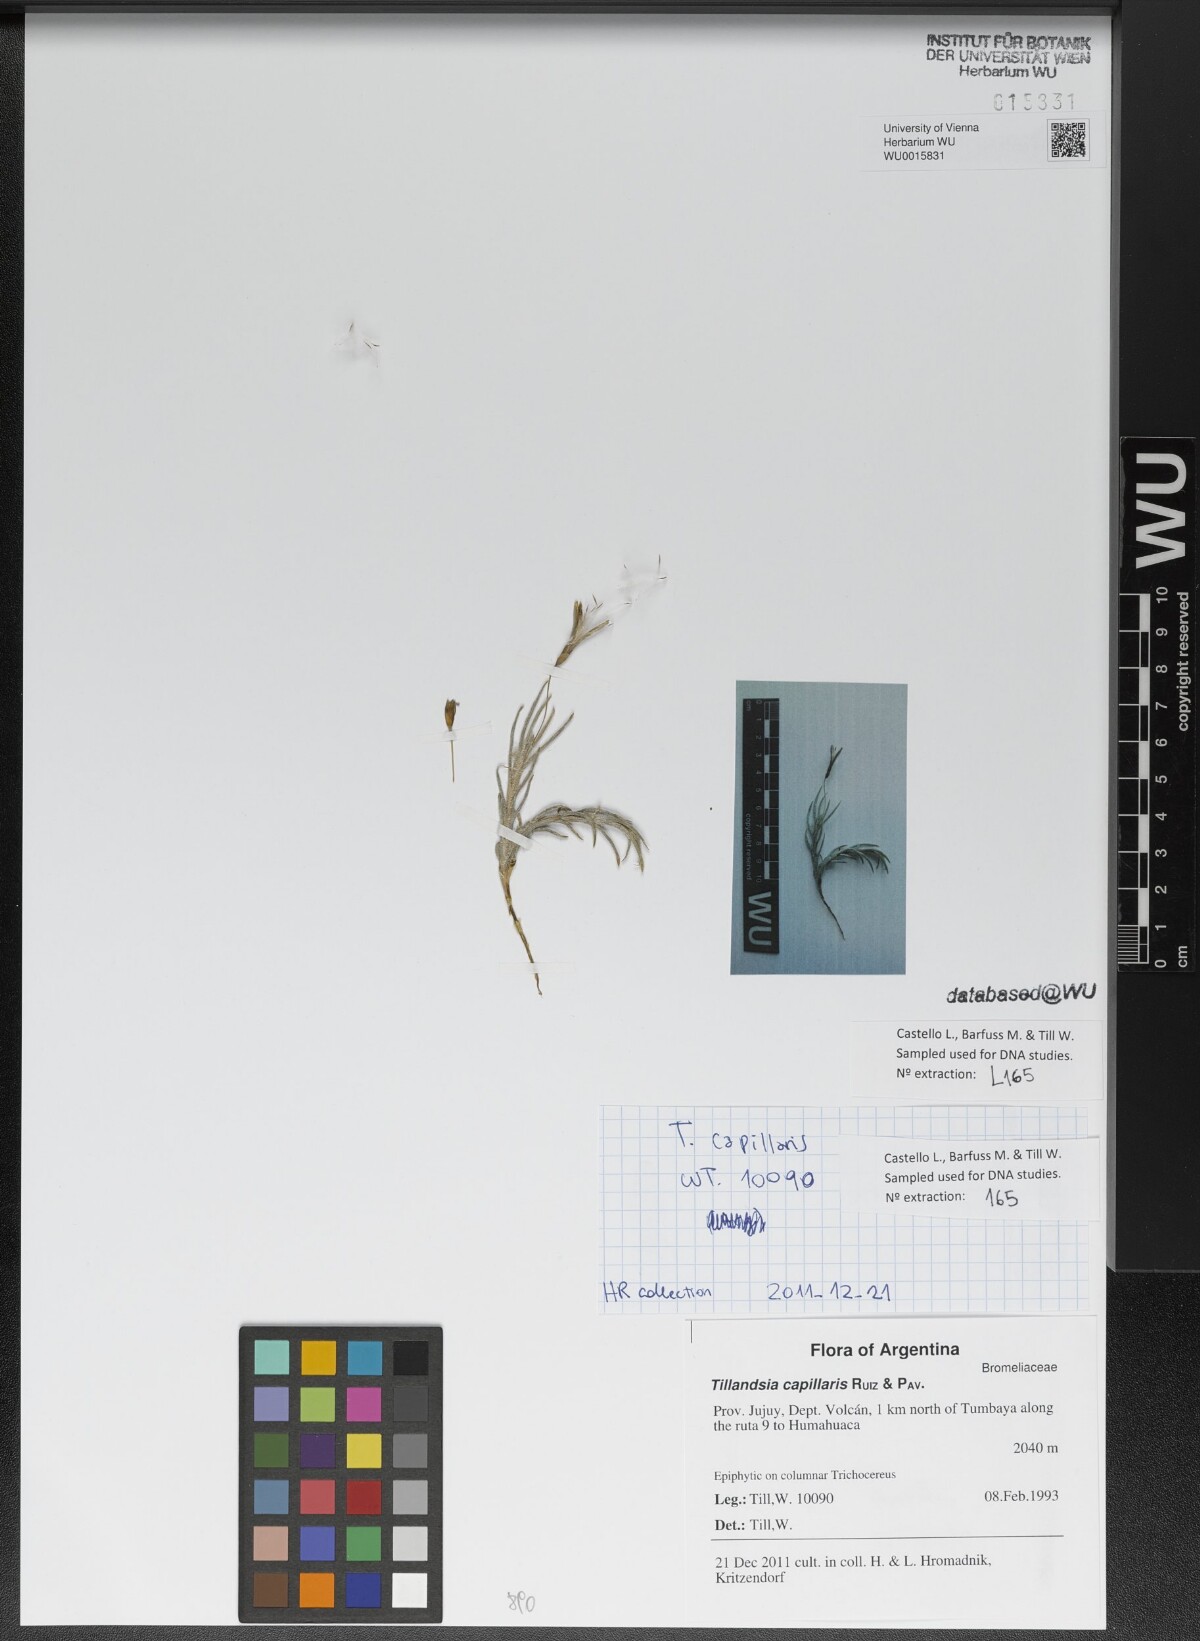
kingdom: Plantae
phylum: Tracheophyta
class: Liliopsida
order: Poales
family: Bromeliaceae
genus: Tillandsia
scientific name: Tillandsia capillaris
